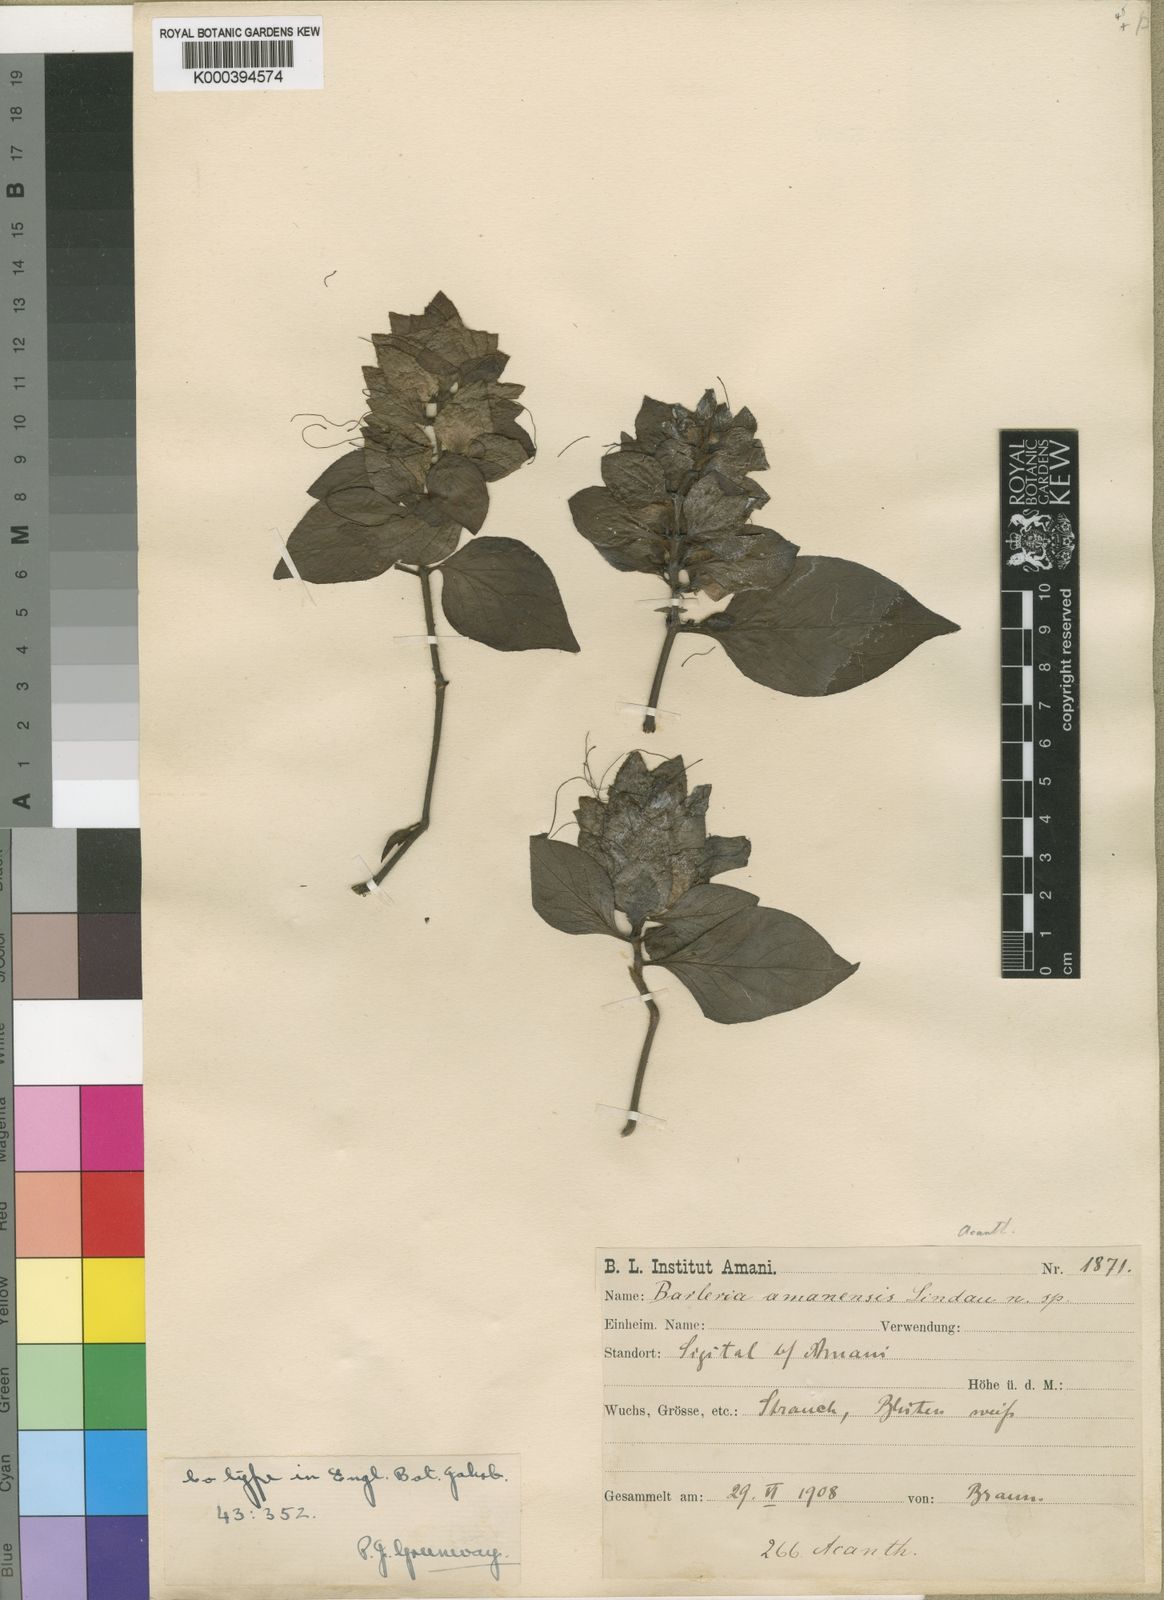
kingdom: Plantae
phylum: Tracheophyta
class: Magnoliopsida
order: Lamiales
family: Acanthaceae
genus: Barleria
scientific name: Barleria amanensis
